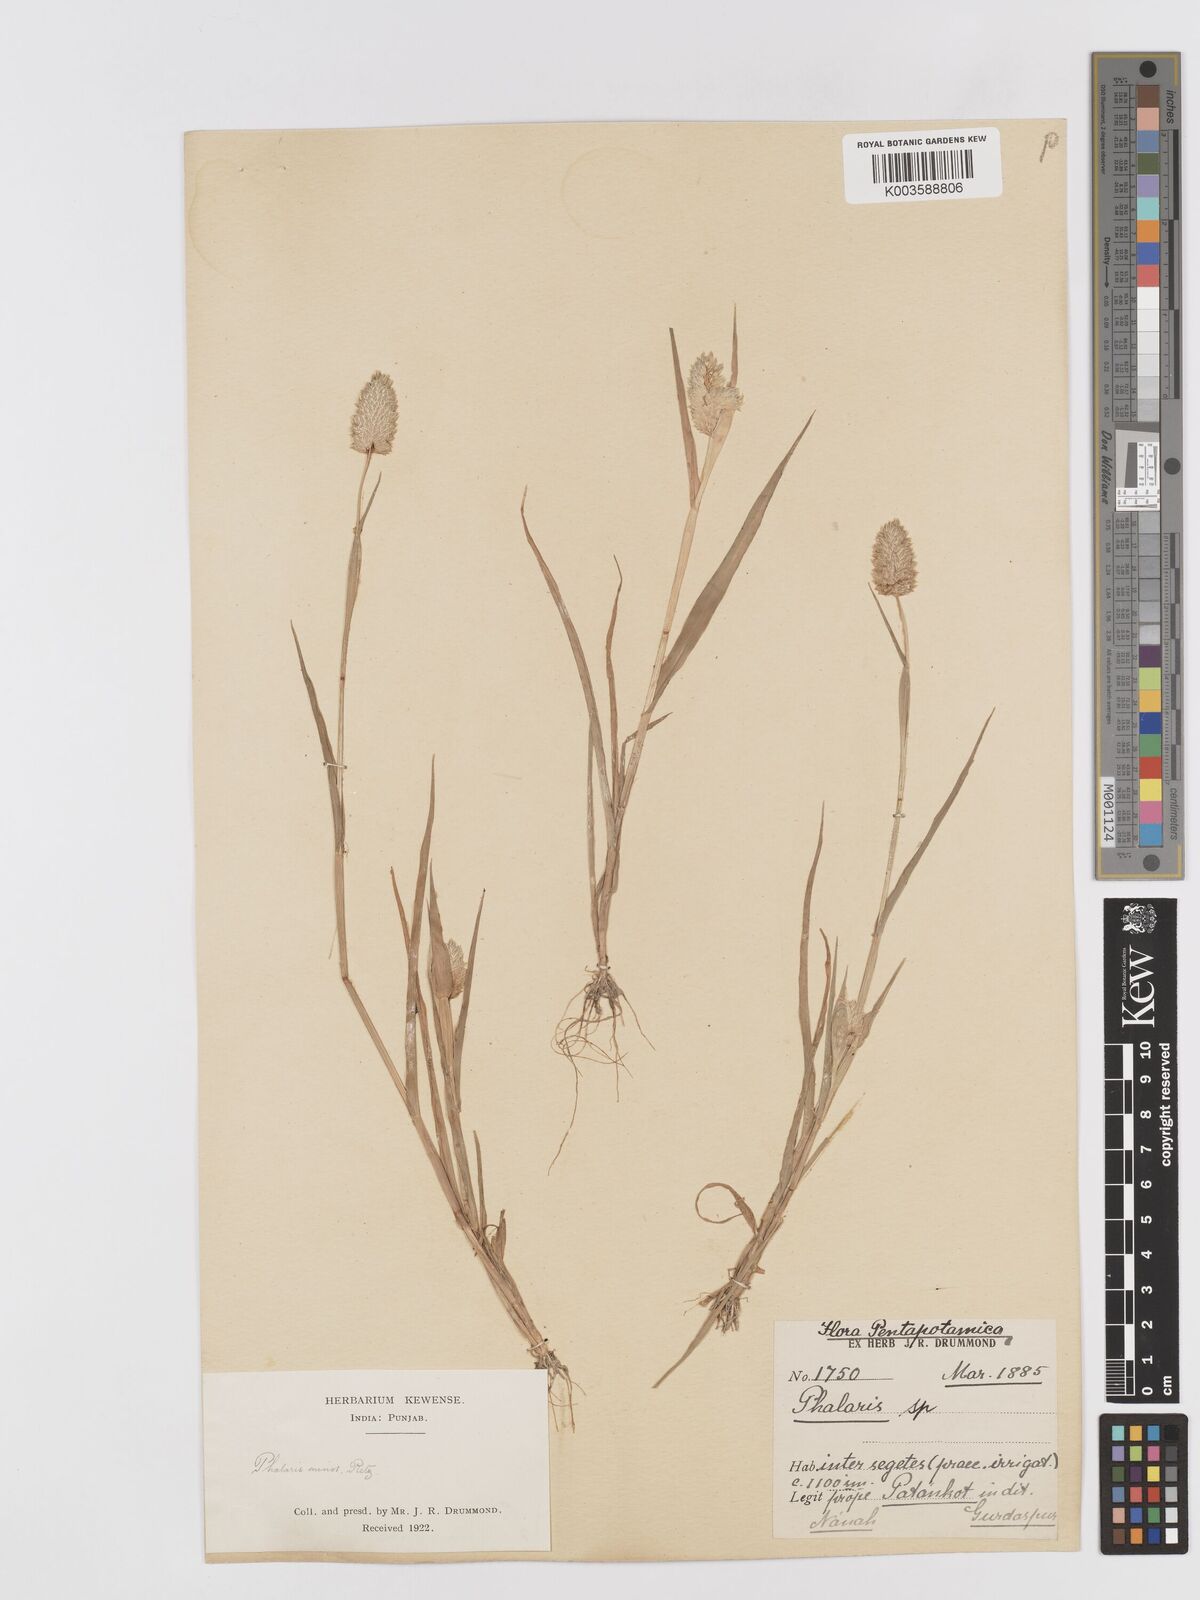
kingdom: Plantae
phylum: Tracheophyta
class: Liliopsida
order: Poales
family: Poaceae
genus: Phalaris
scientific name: Phalaris minor
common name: Littleseed canarygrass
